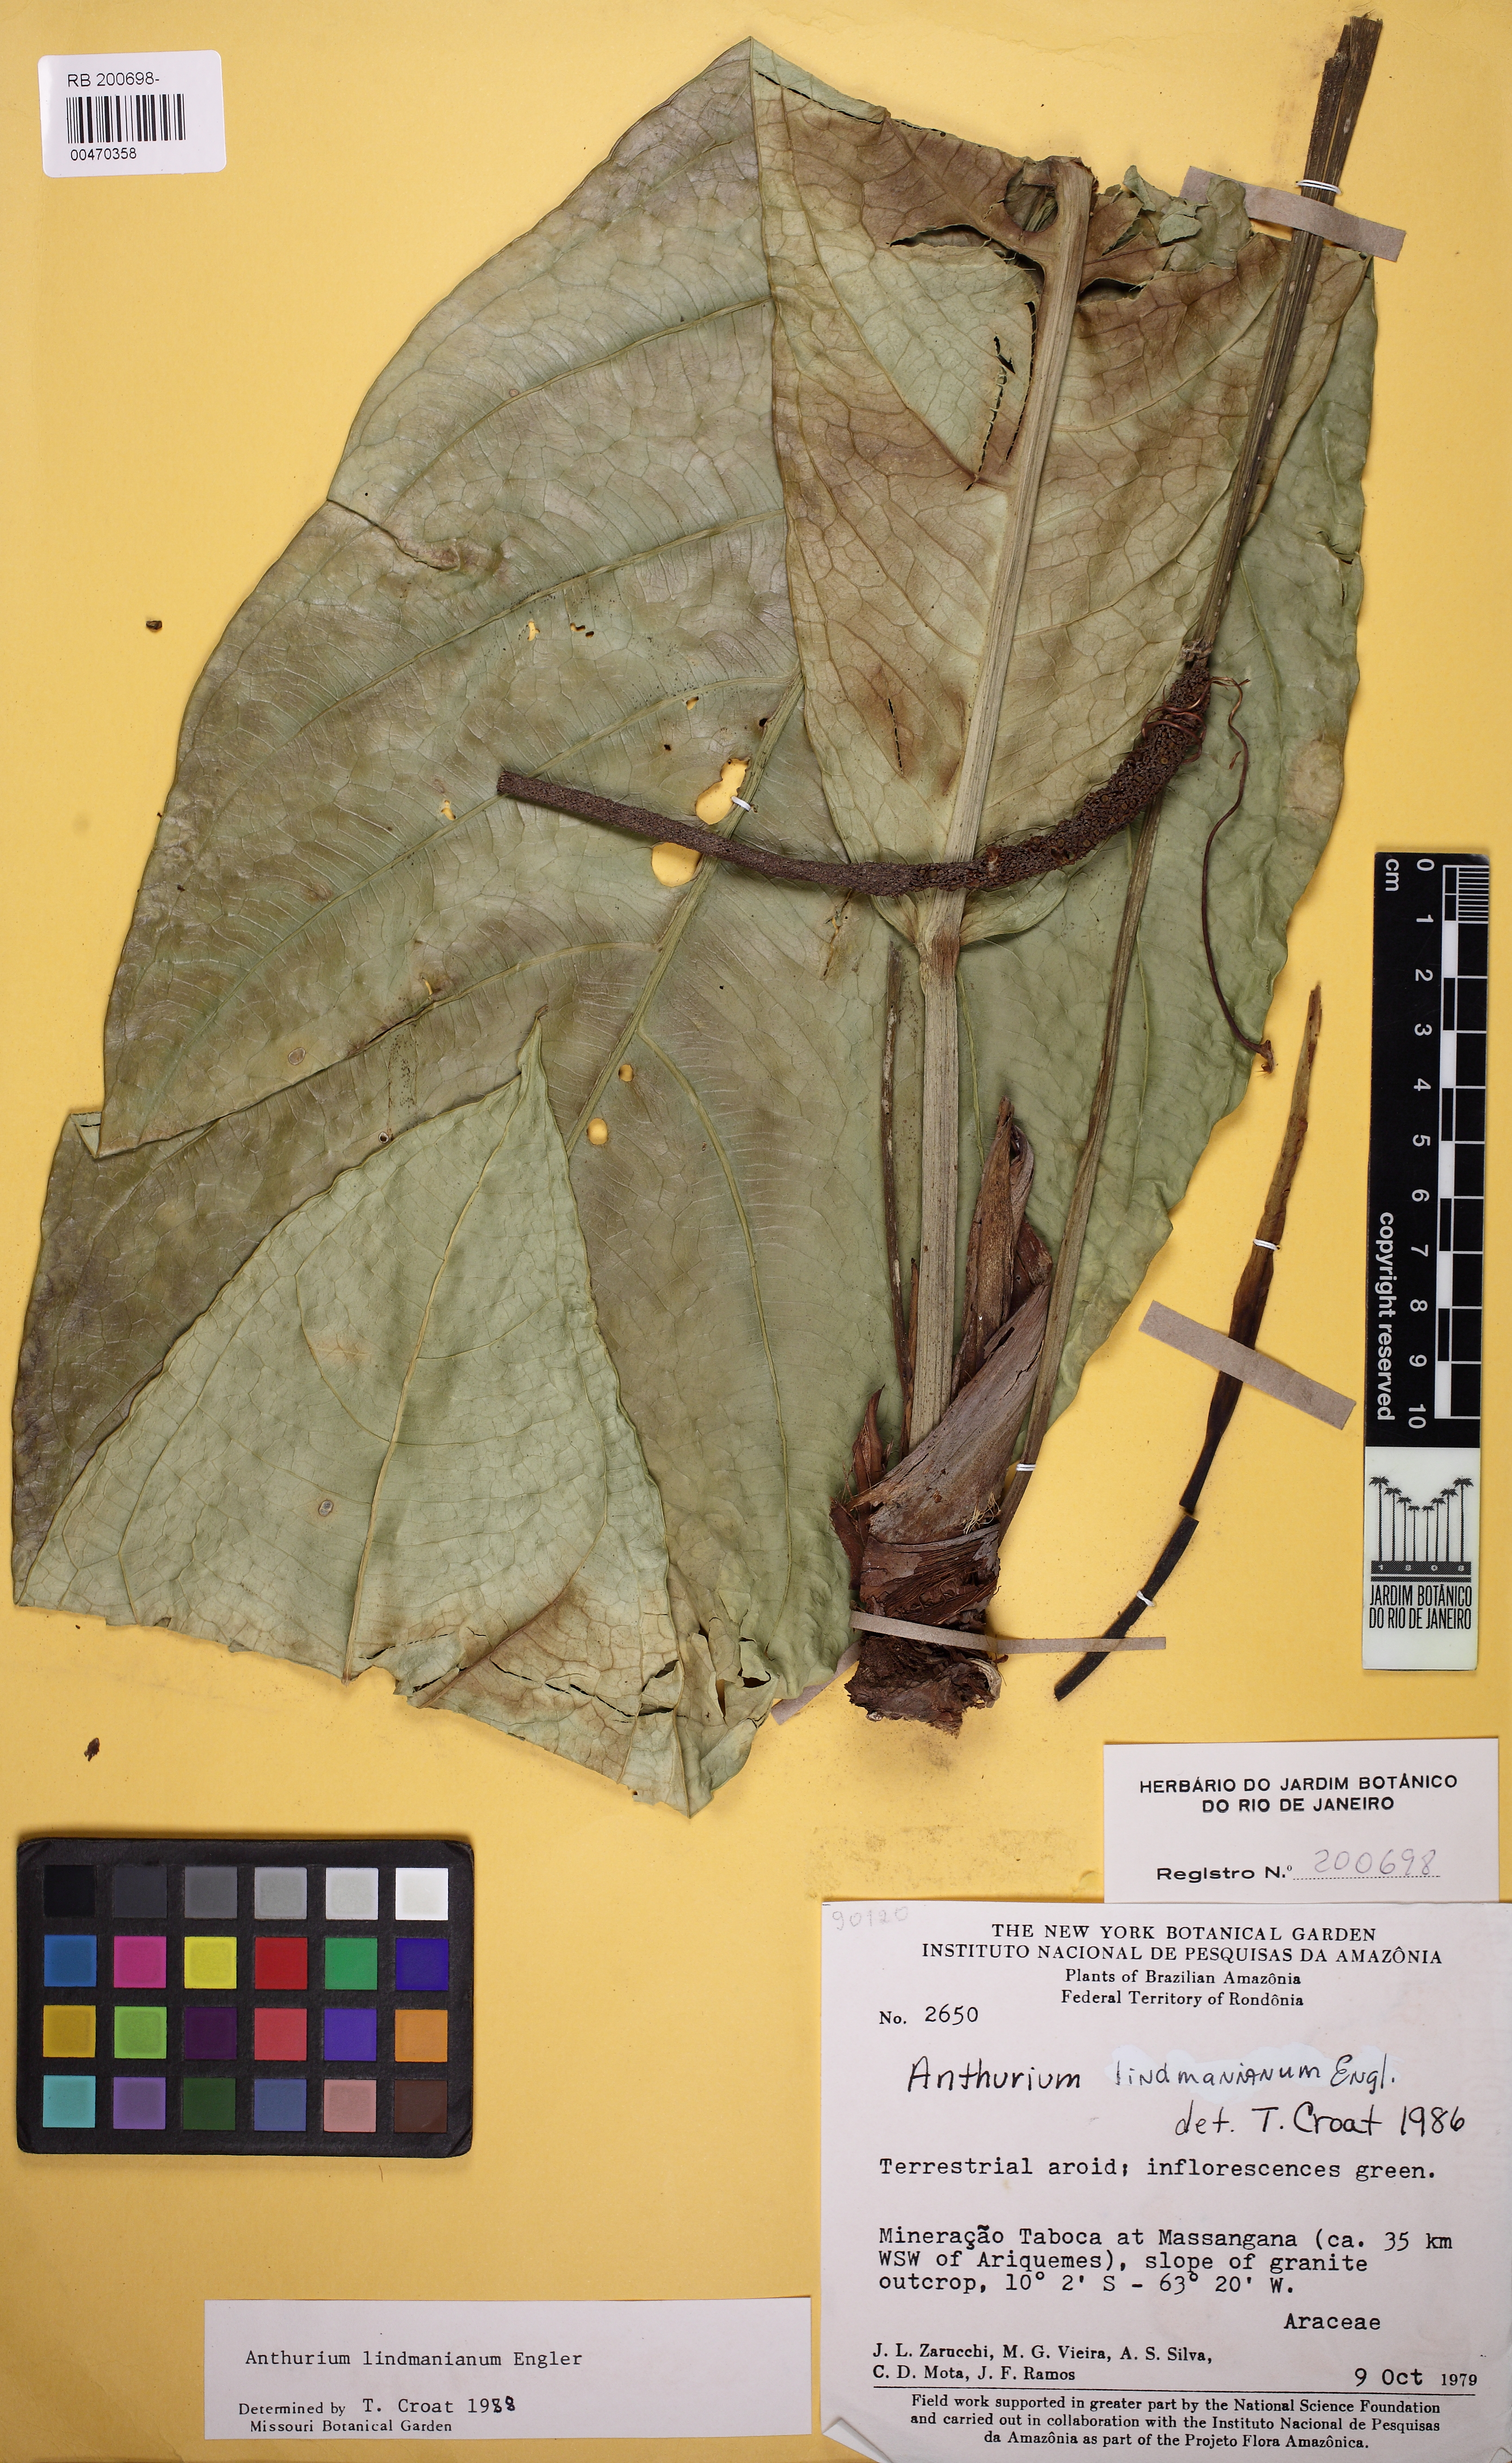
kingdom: Plantae
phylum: Tracheophyta
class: Liliopsida
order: Alismatales
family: Araceae
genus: Anthurium
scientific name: Anthurium lindmanianum
